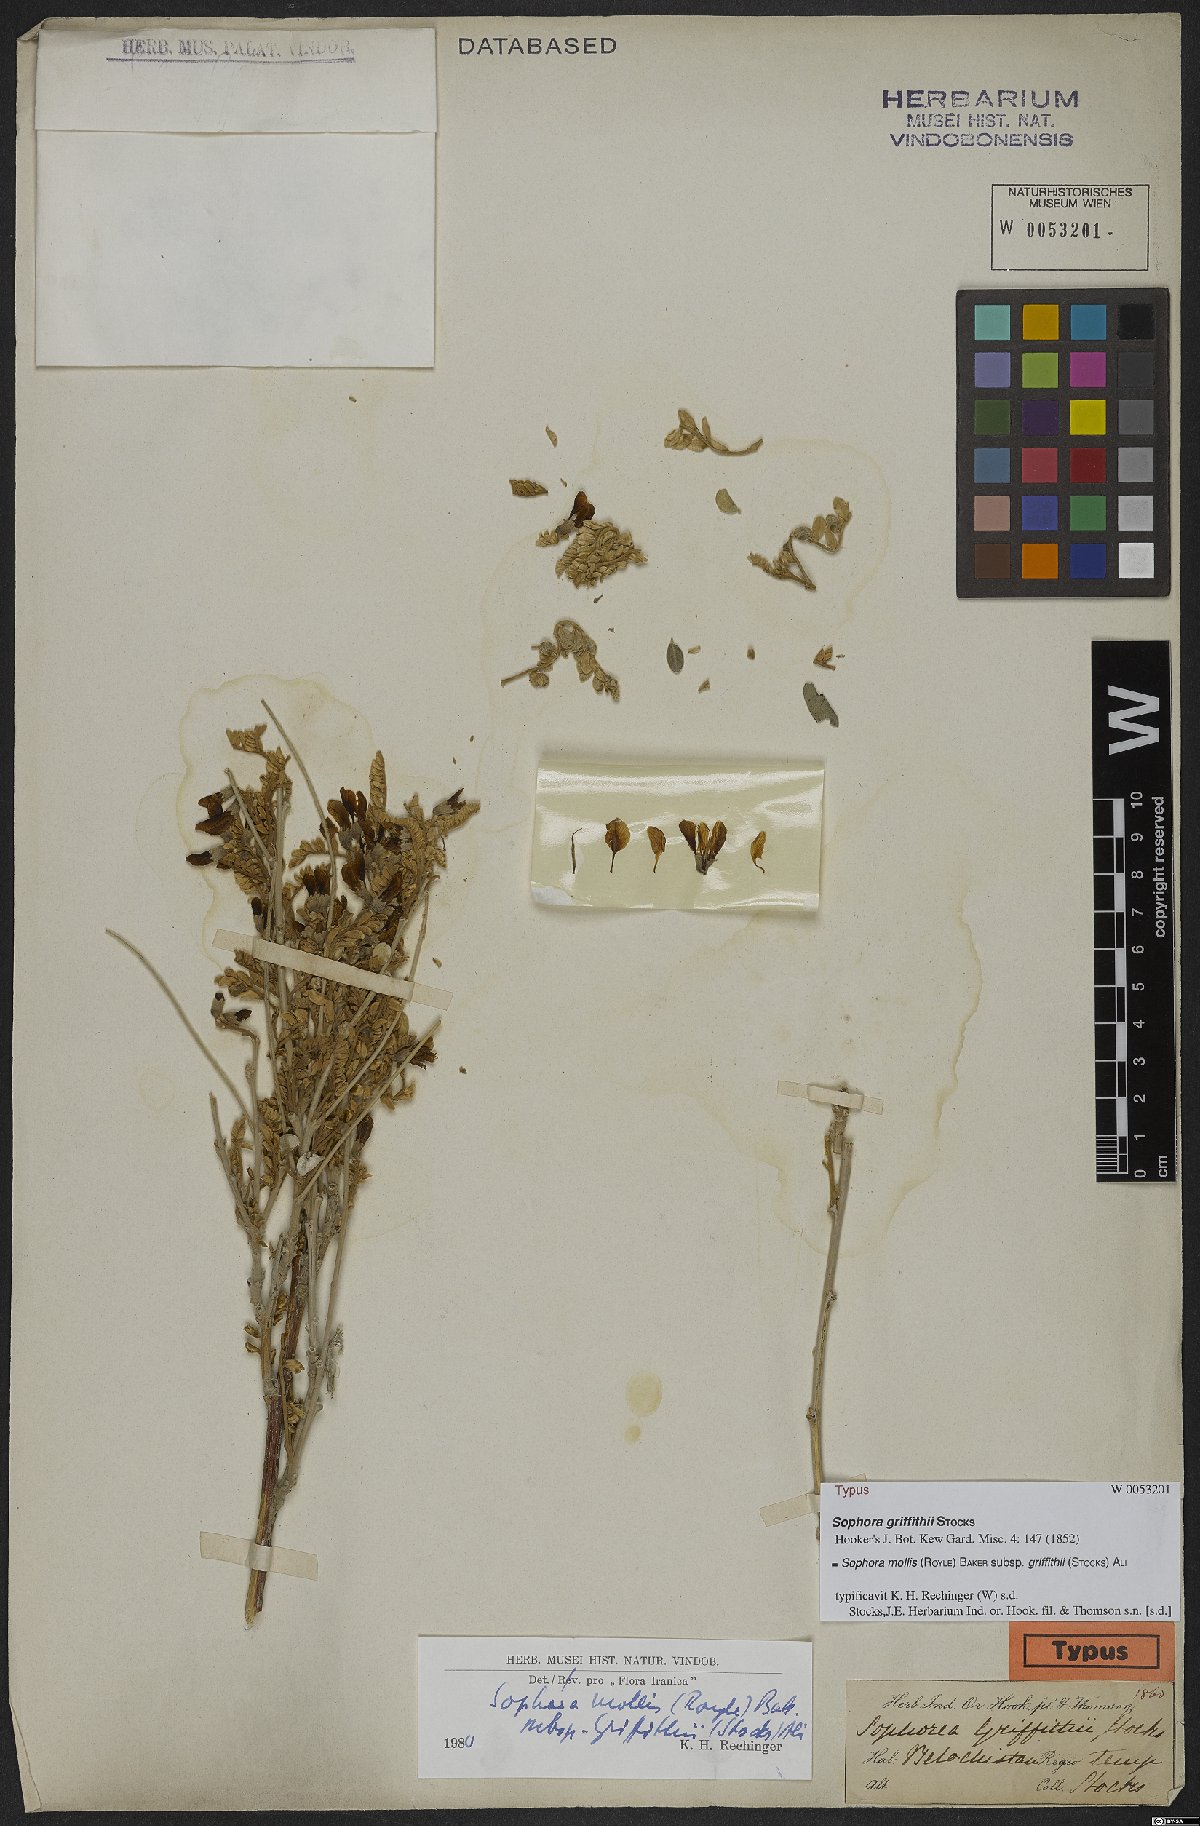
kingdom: Plantae
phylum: Tracheophyta
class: Magnoliopsida
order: Fabales
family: Fabaceae
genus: Sophora
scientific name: Sophora mollis
